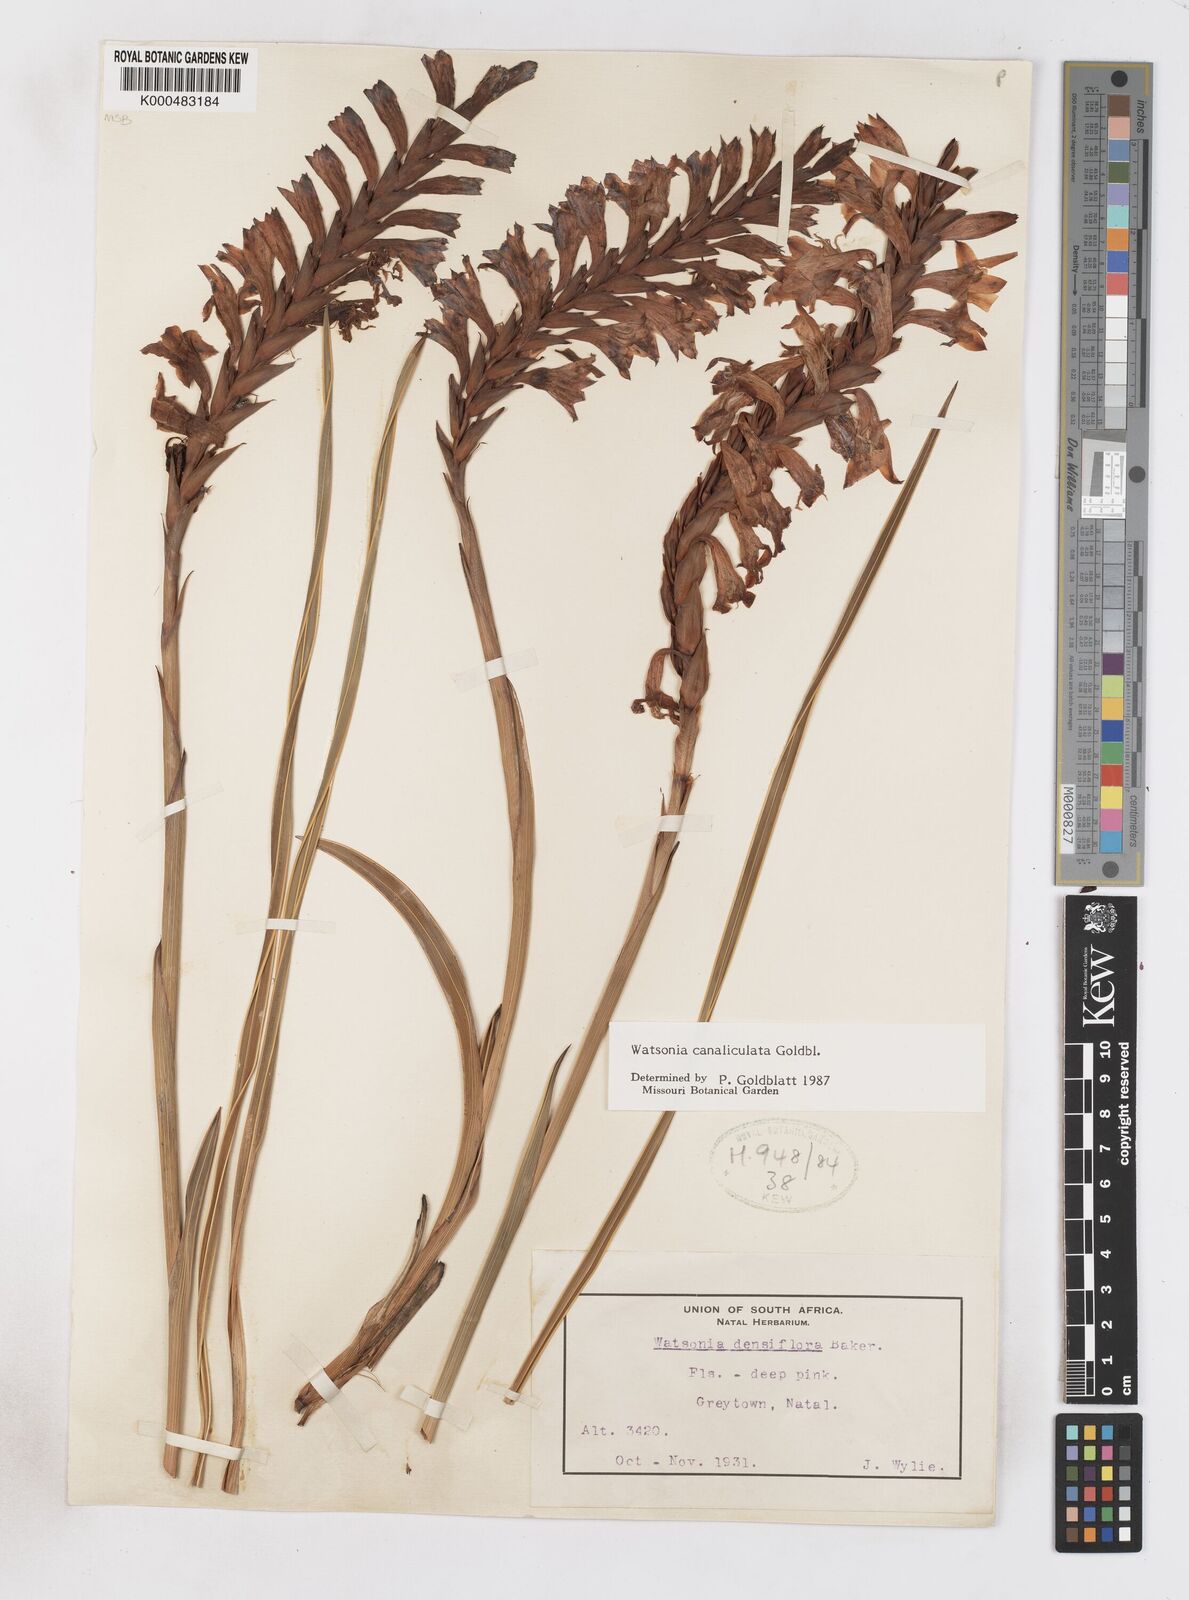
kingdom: Plantae
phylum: Tracheophyta
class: Liliopsida
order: Asparagales
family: Iridaceae
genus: Watsonia
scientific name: Watsonia canaliculata
